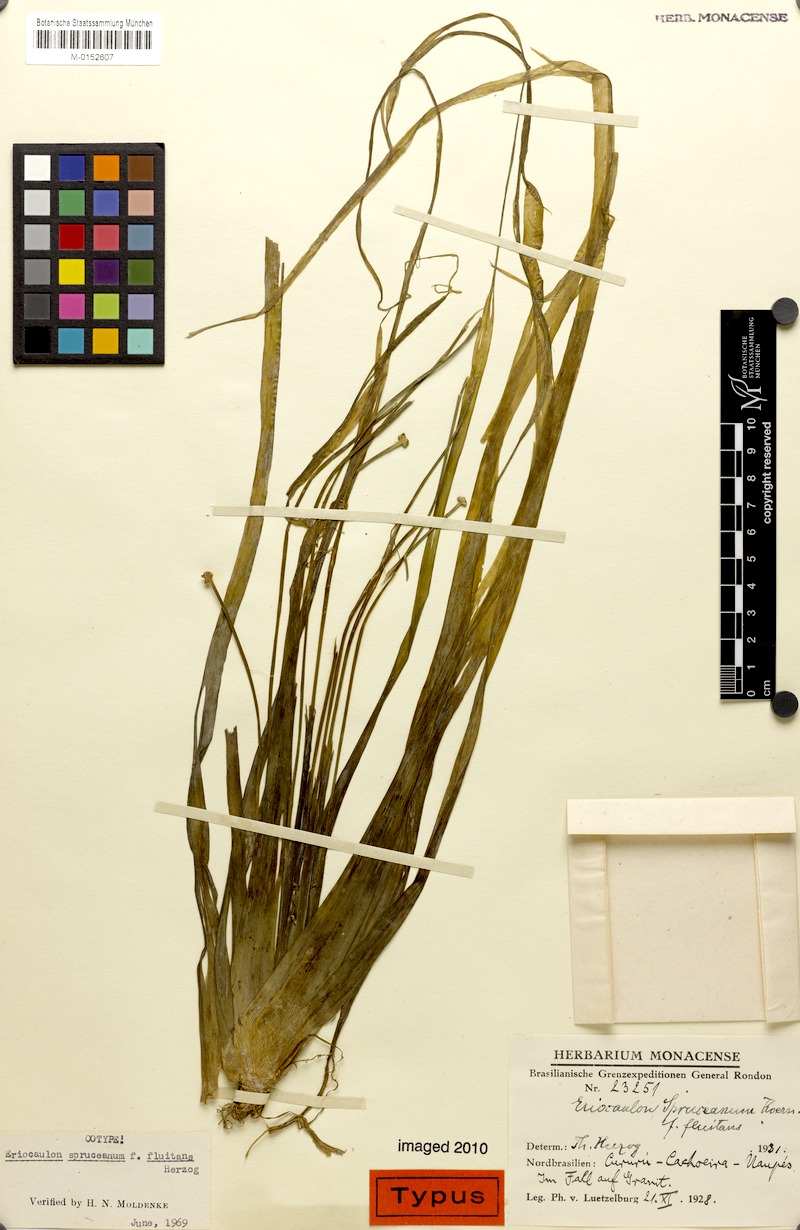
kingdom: Plantae
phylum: Tracheophyta
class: Liliopsida
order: Poales
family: Eriocaulaceae
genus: Eriocaulon
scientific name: Eriocaulon spruceanum
